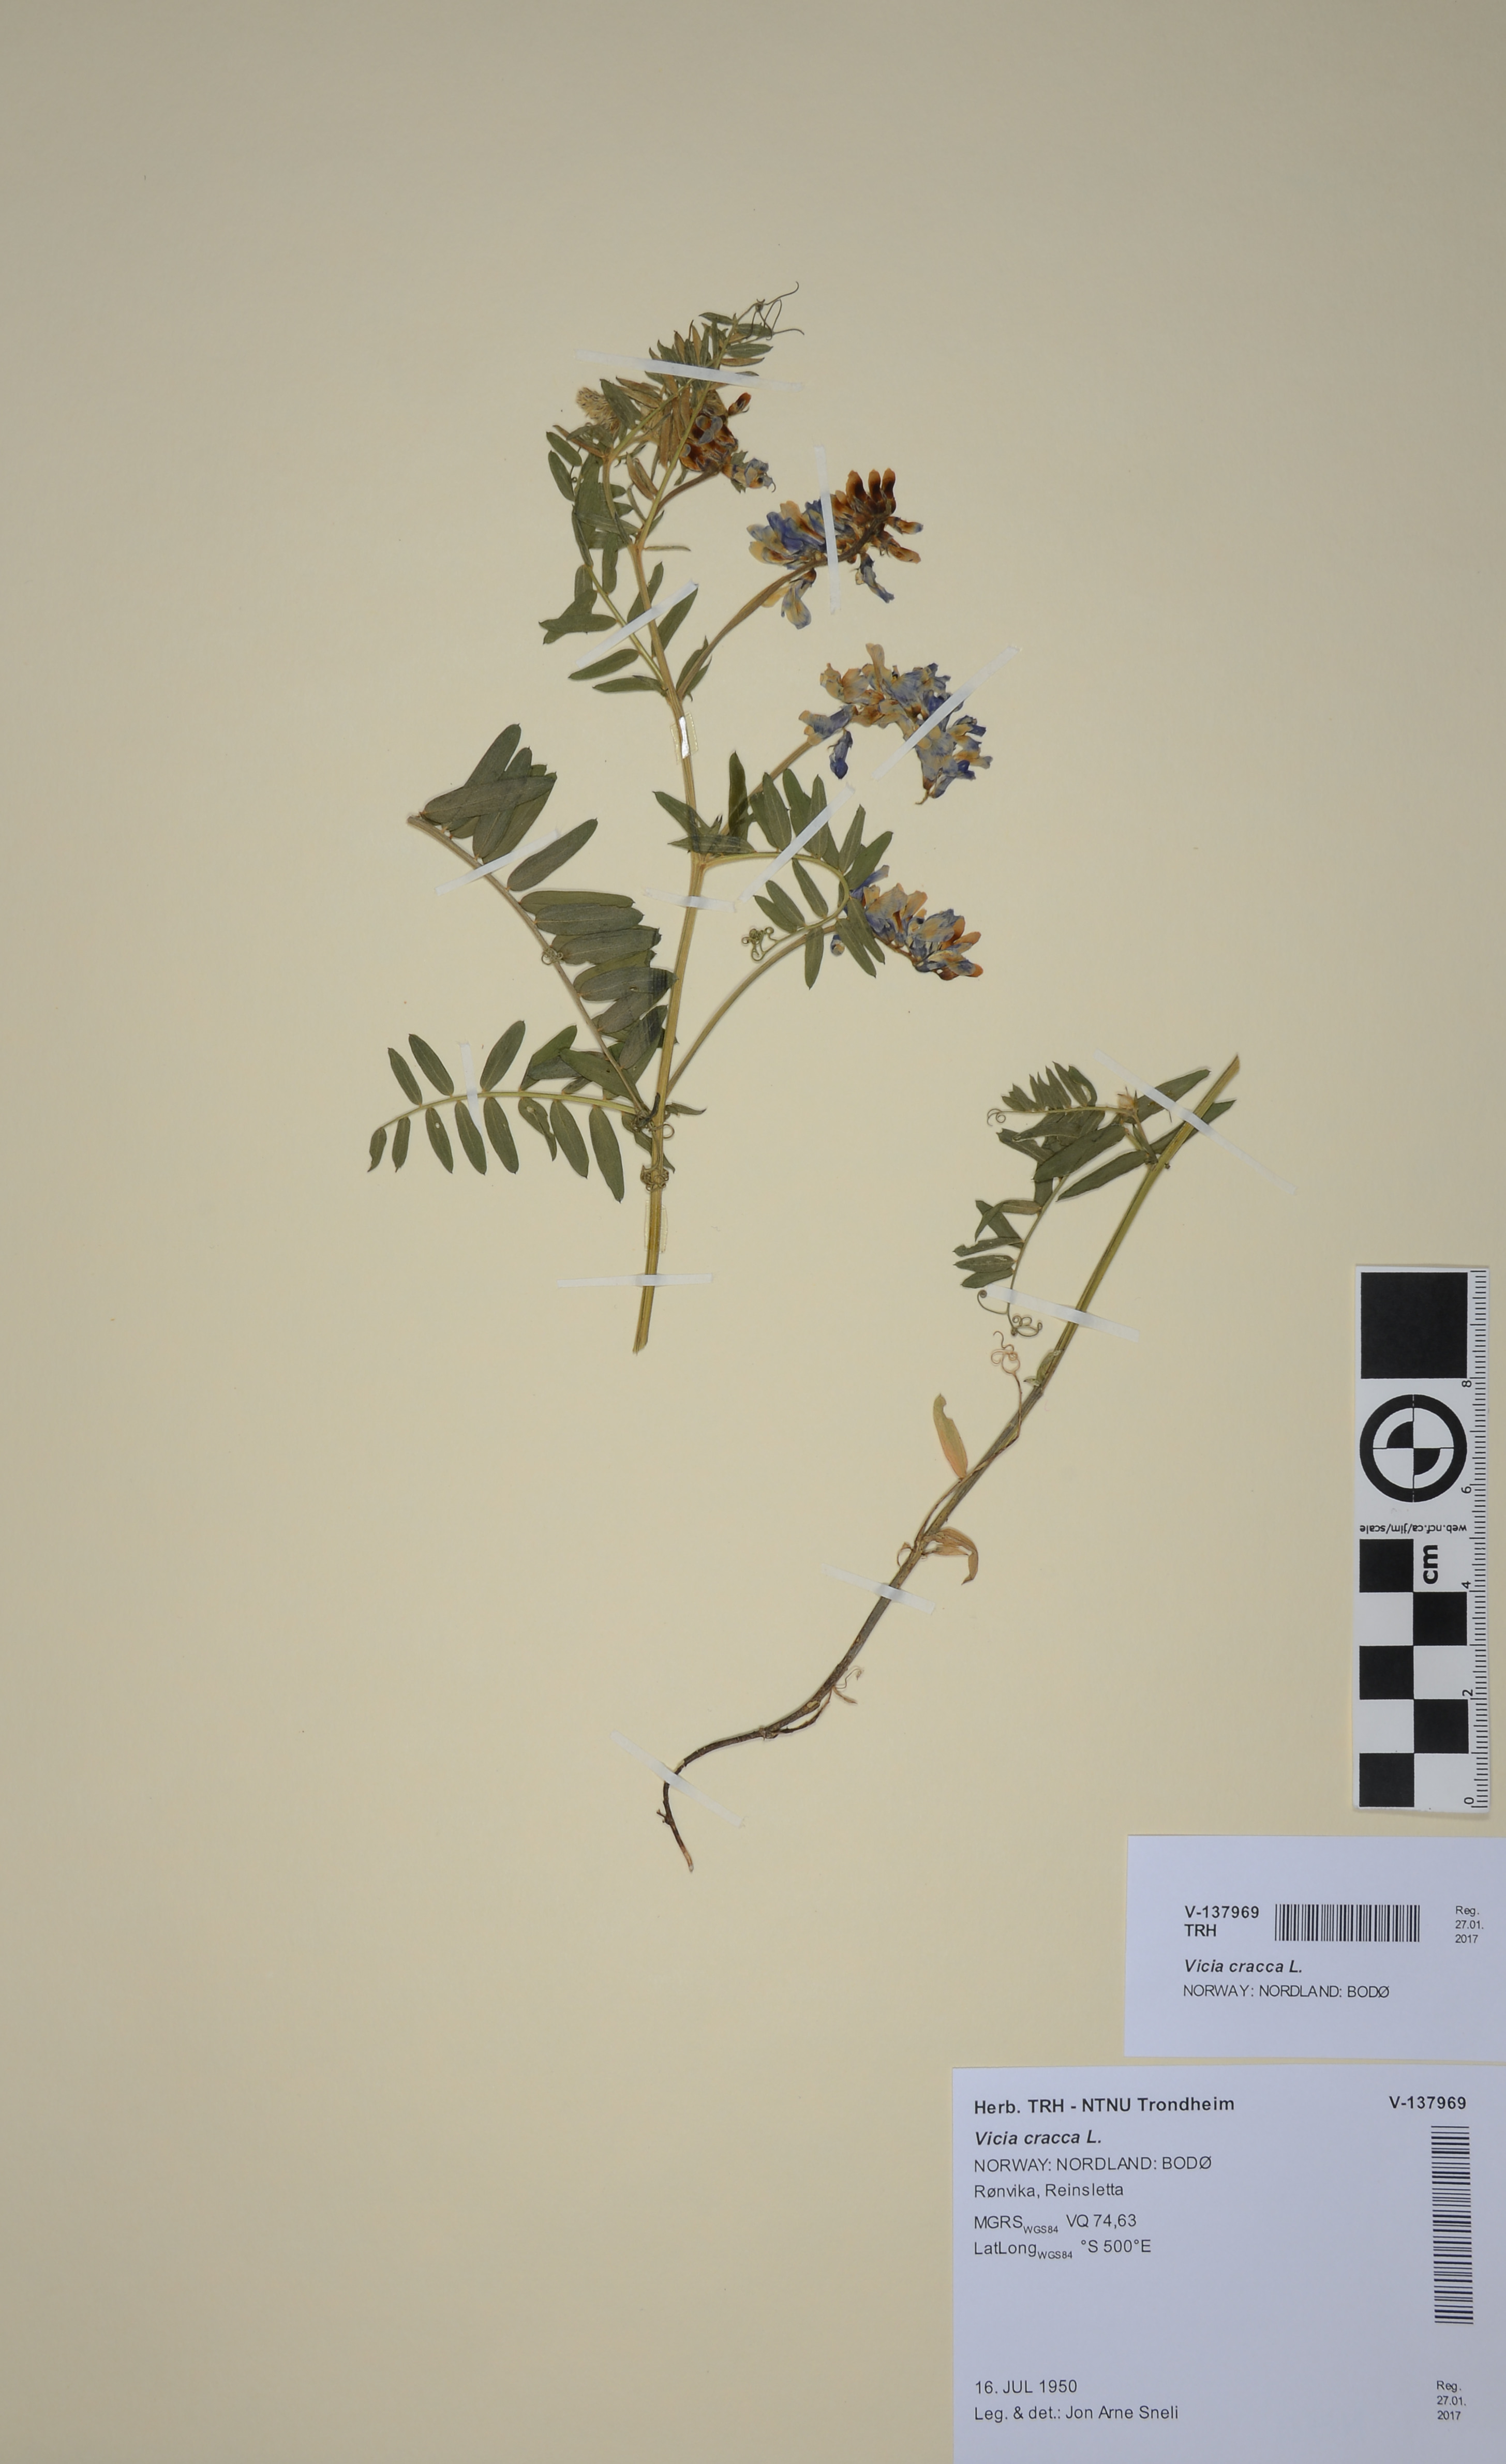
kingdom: Plantae
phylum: Tracheophyta
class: Magnoliopsida
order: Fabales
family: Fabaceae
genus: Vicia
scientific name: Vicia cracca
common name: Bird vetch
